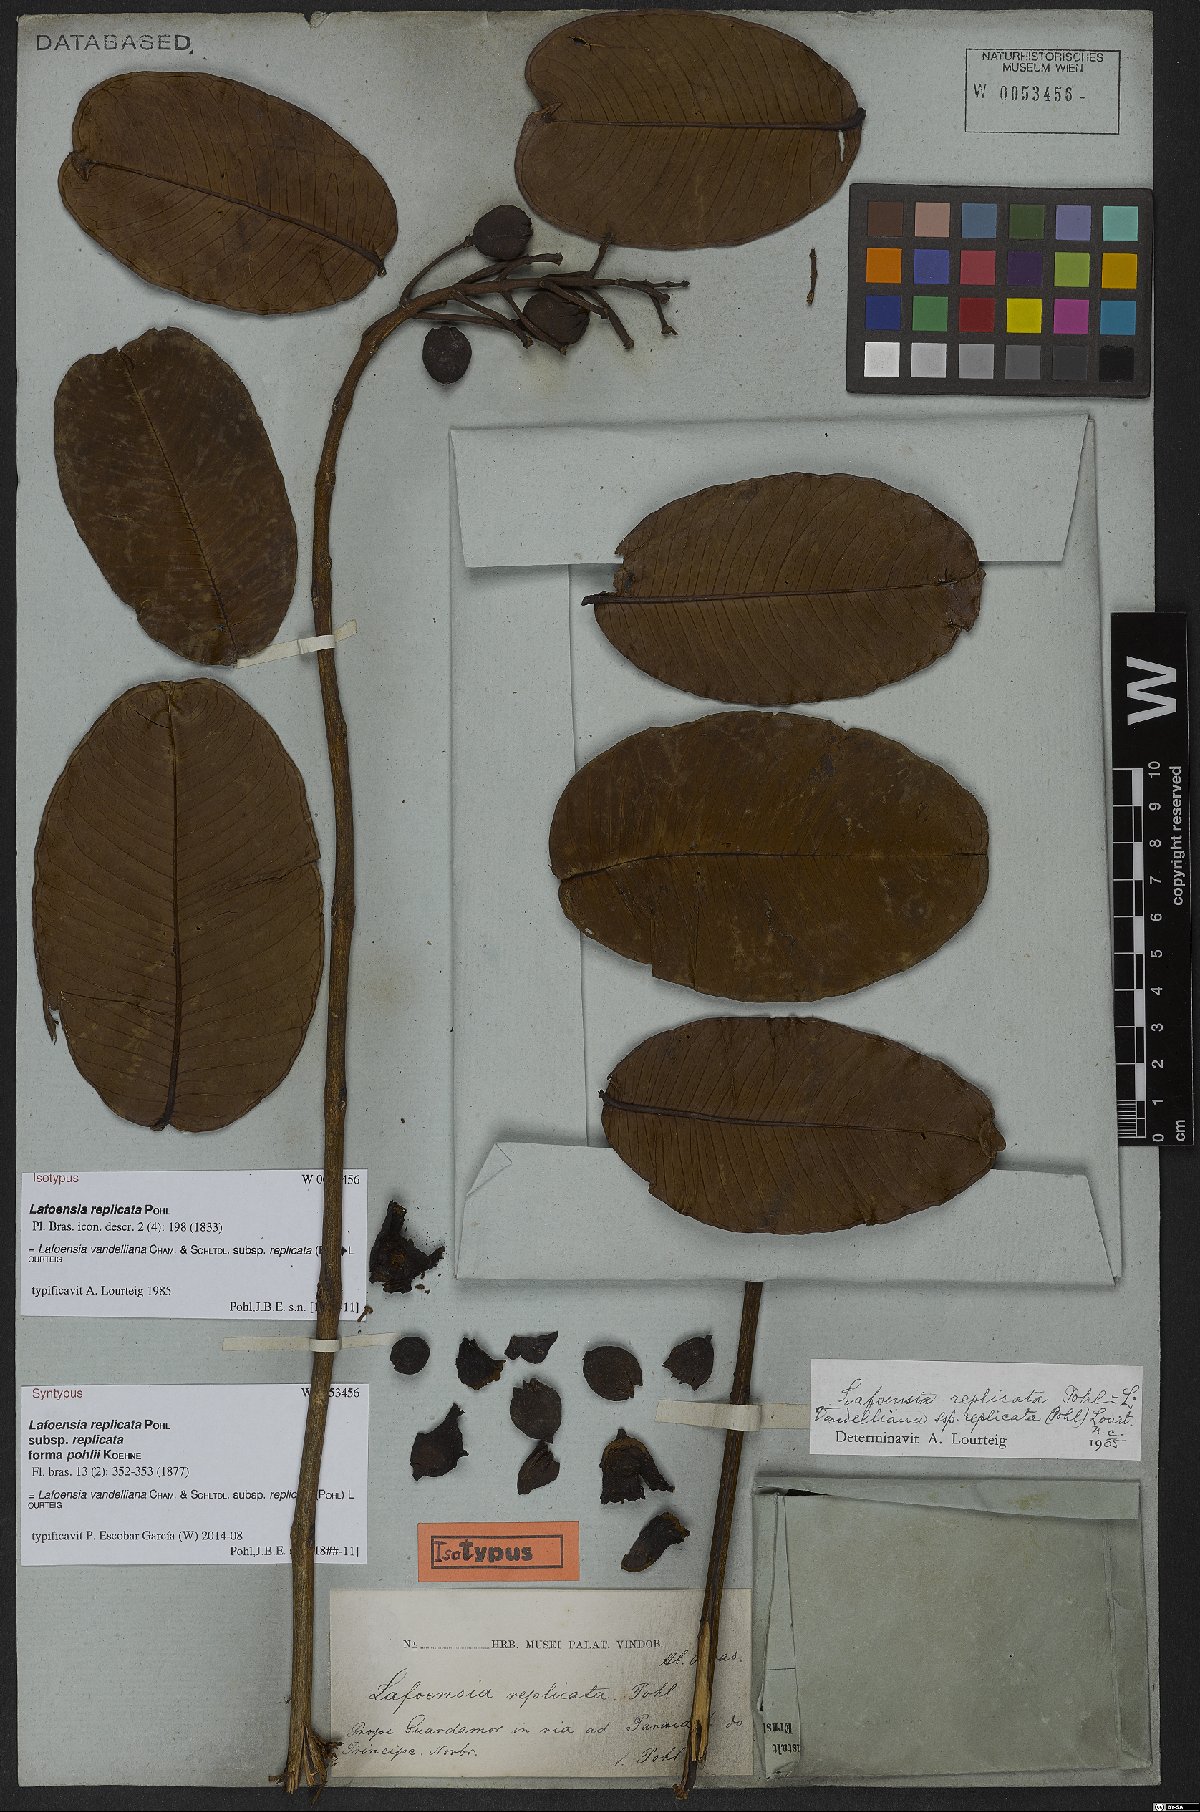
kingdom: Plantae
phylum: Tracheophyta
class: Magnoliopsida
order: Myrtales
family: Lythraceae
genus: Lafoensia
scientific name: Lafoensia vandelliana
